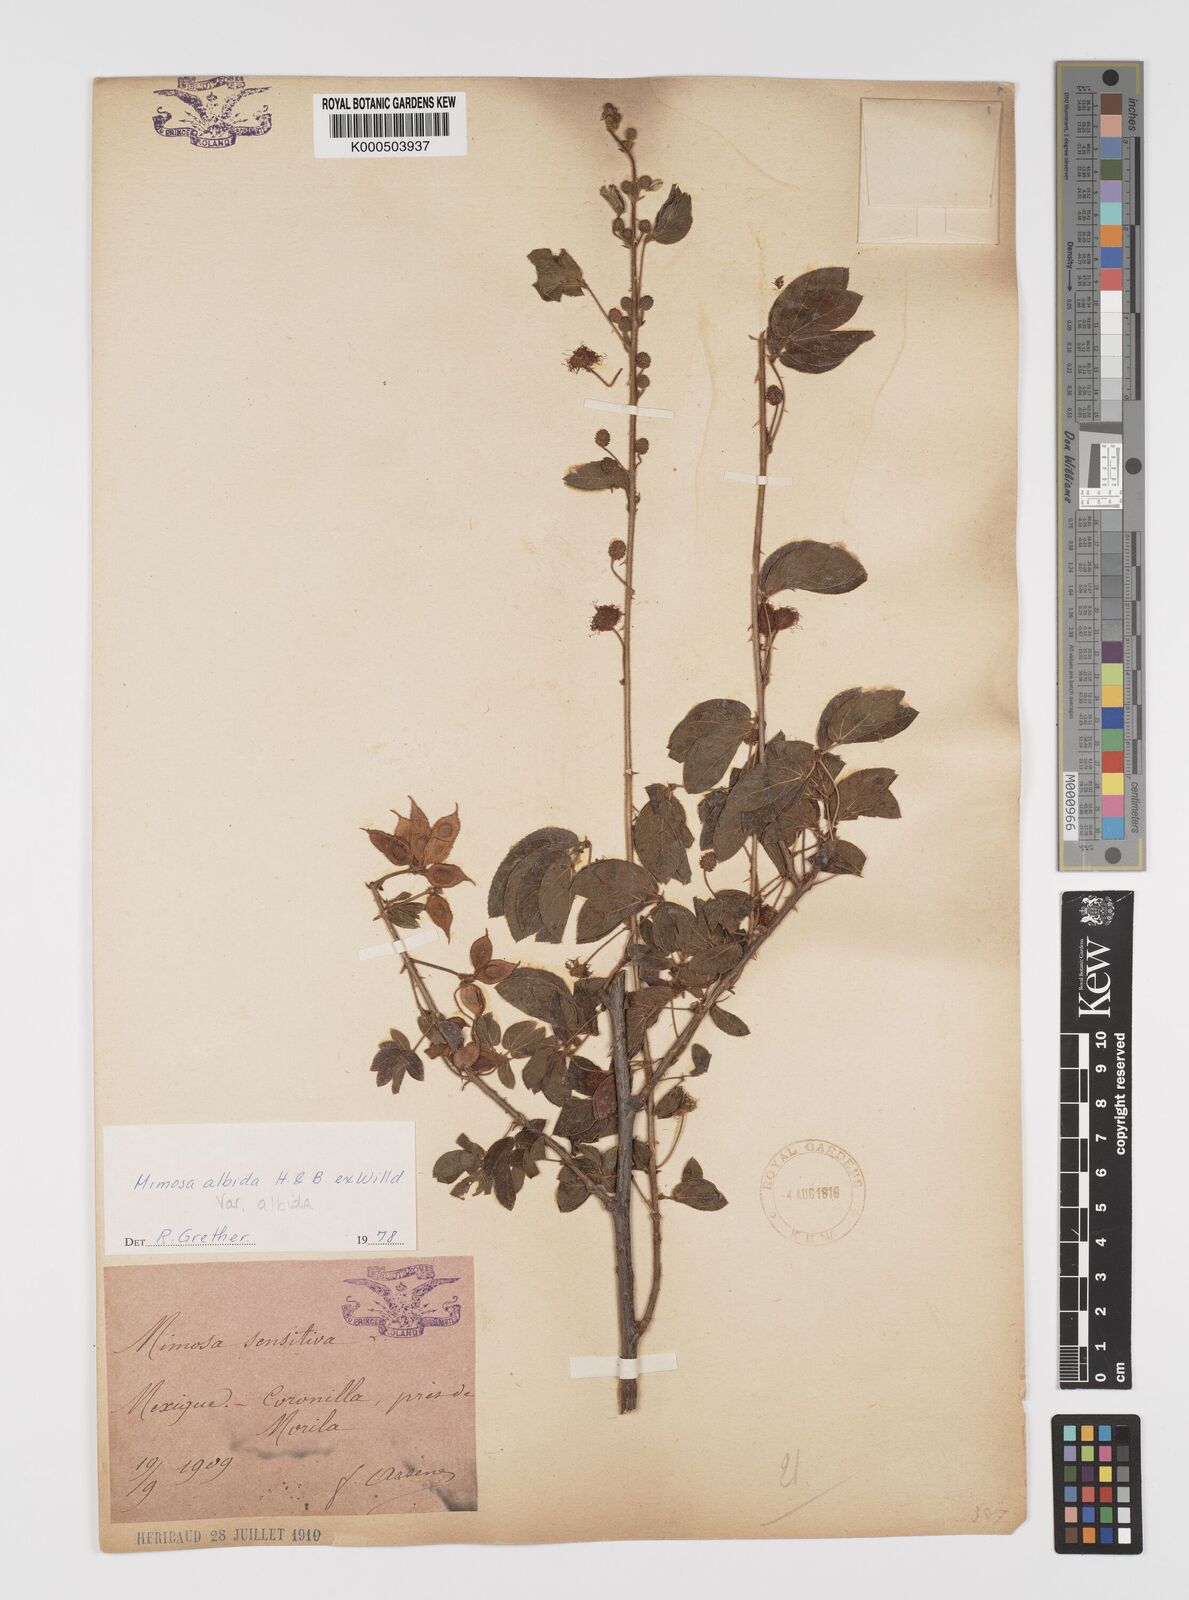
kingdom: Plantae
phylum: Tracheophyta
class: Magnoliopsida
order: Fabales
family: Fabaceae
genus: Mimosa
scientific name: Mimosa albida
